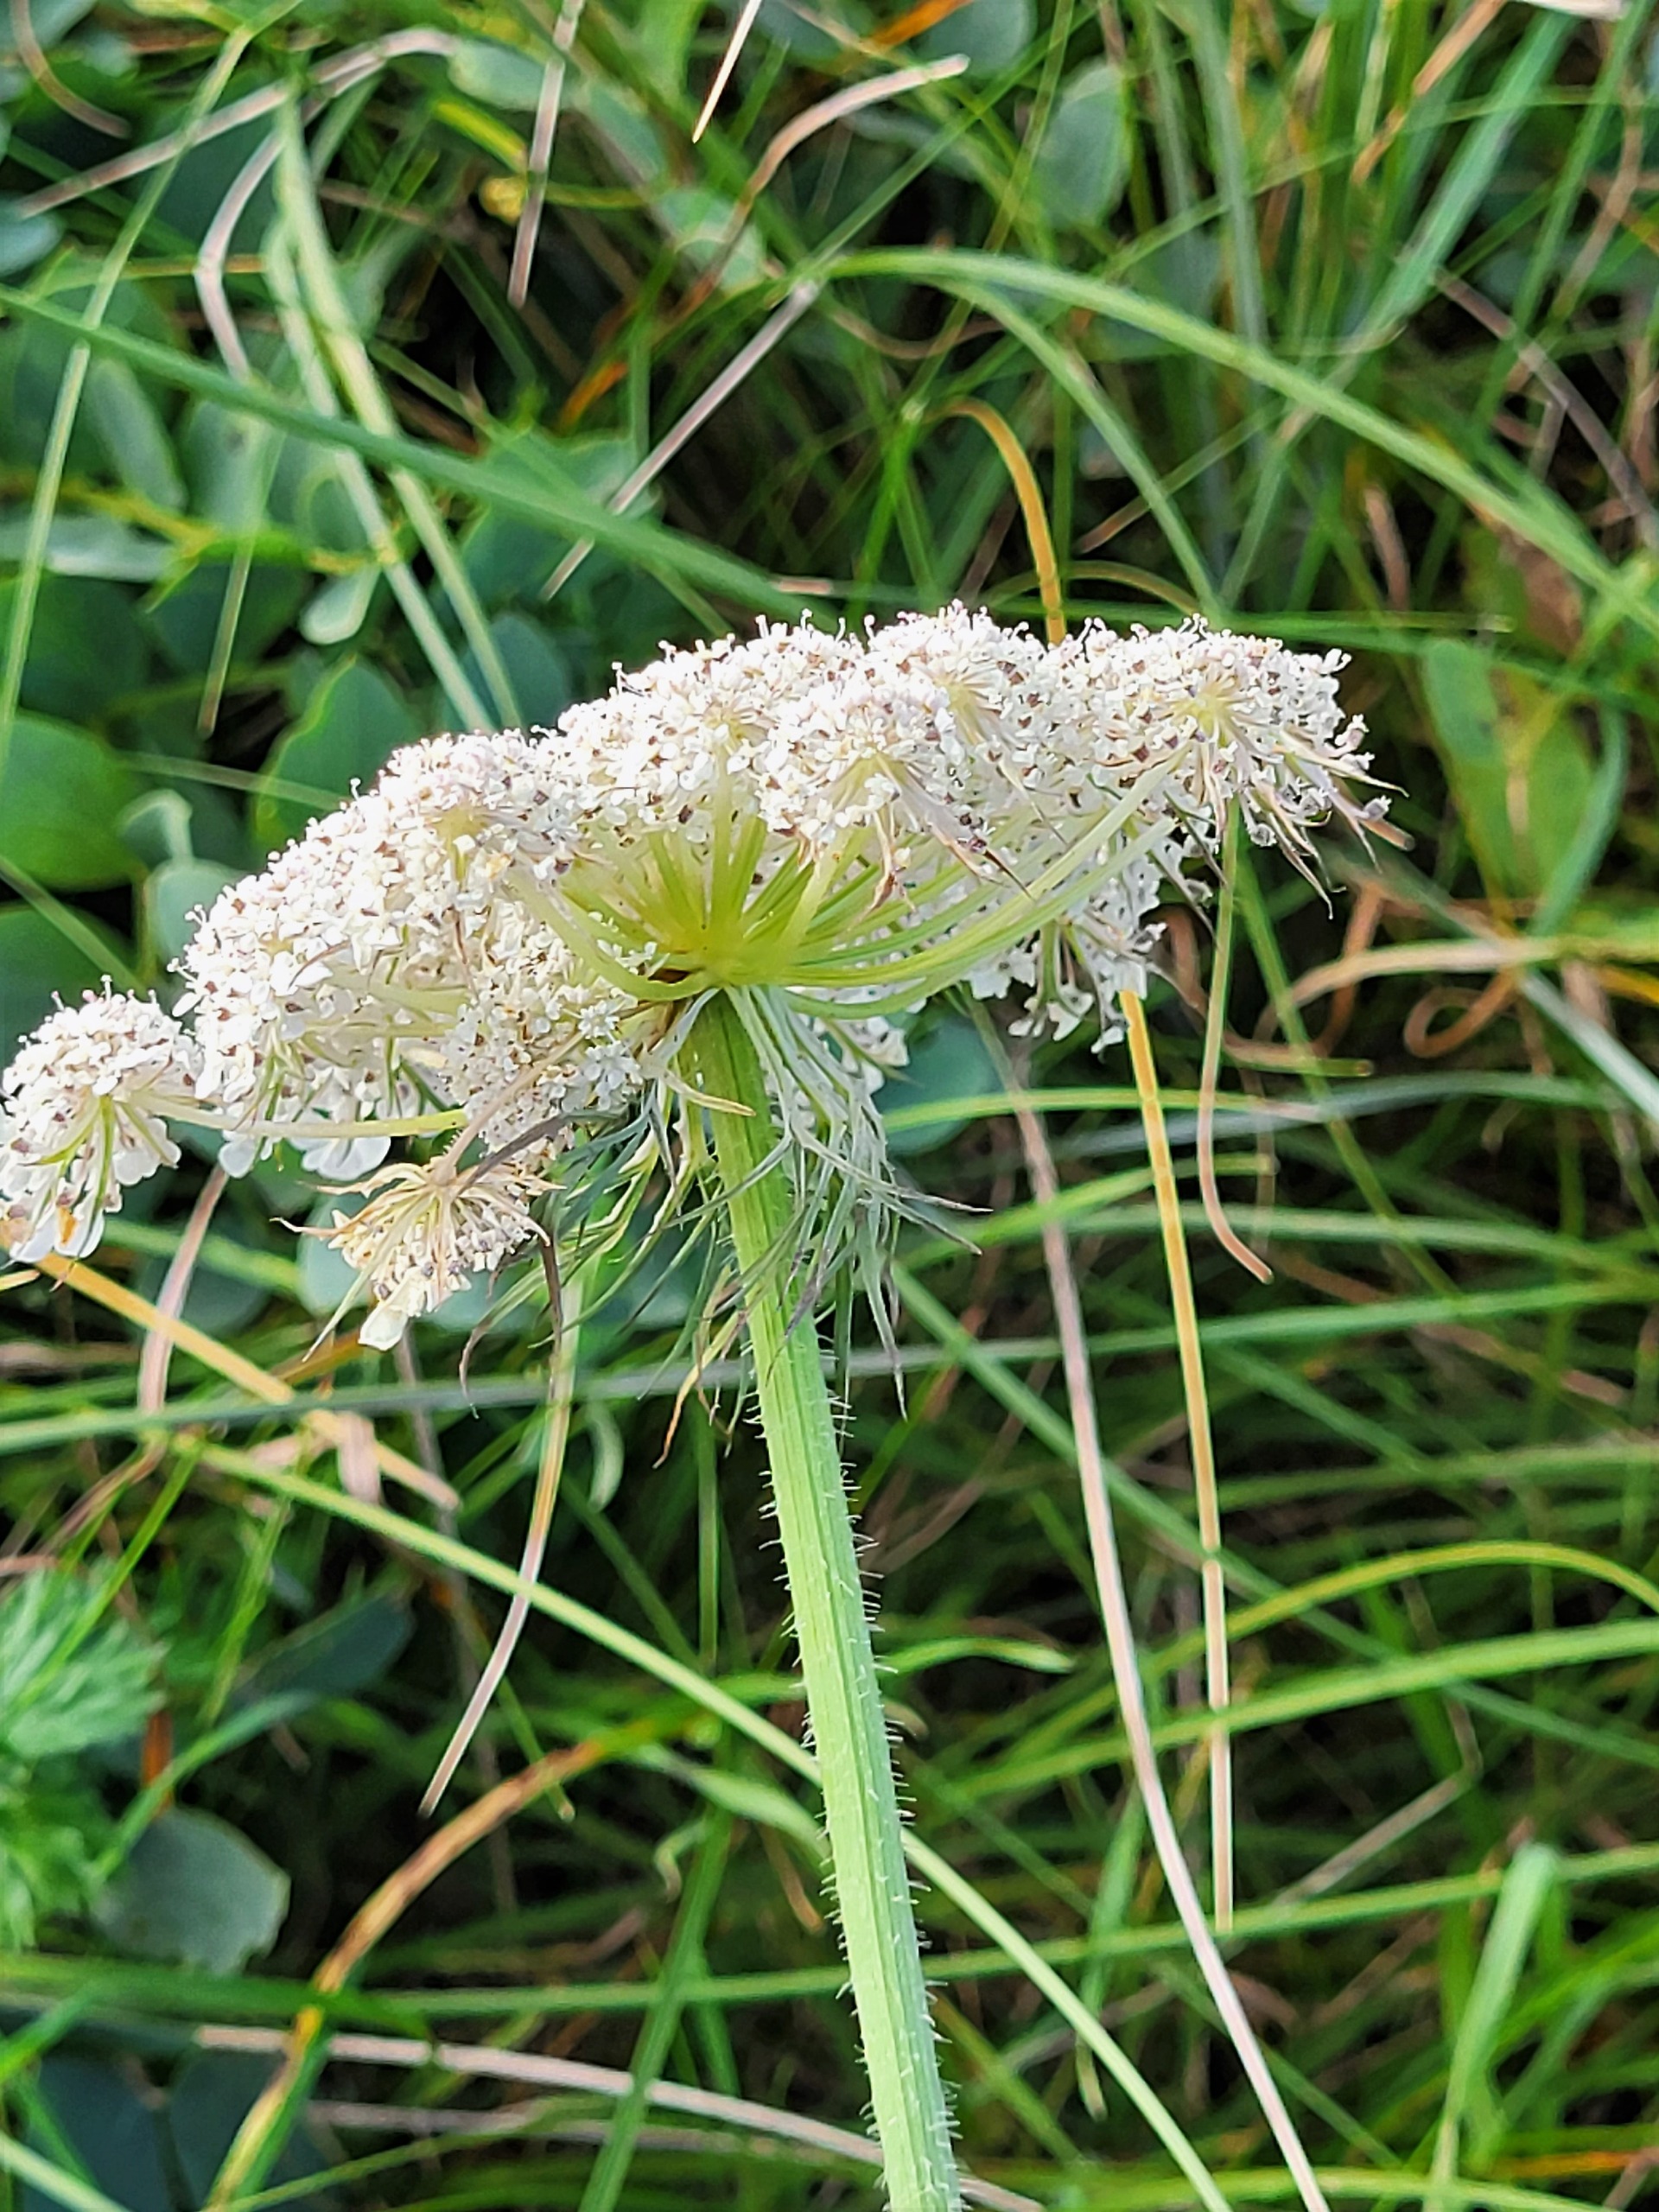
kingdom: Plantae
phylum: Tracheophyta
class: Magnoliopsida
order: Apiales
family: Apiaceae
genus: Daucus
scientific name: Daucus carota
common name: Gulerod
